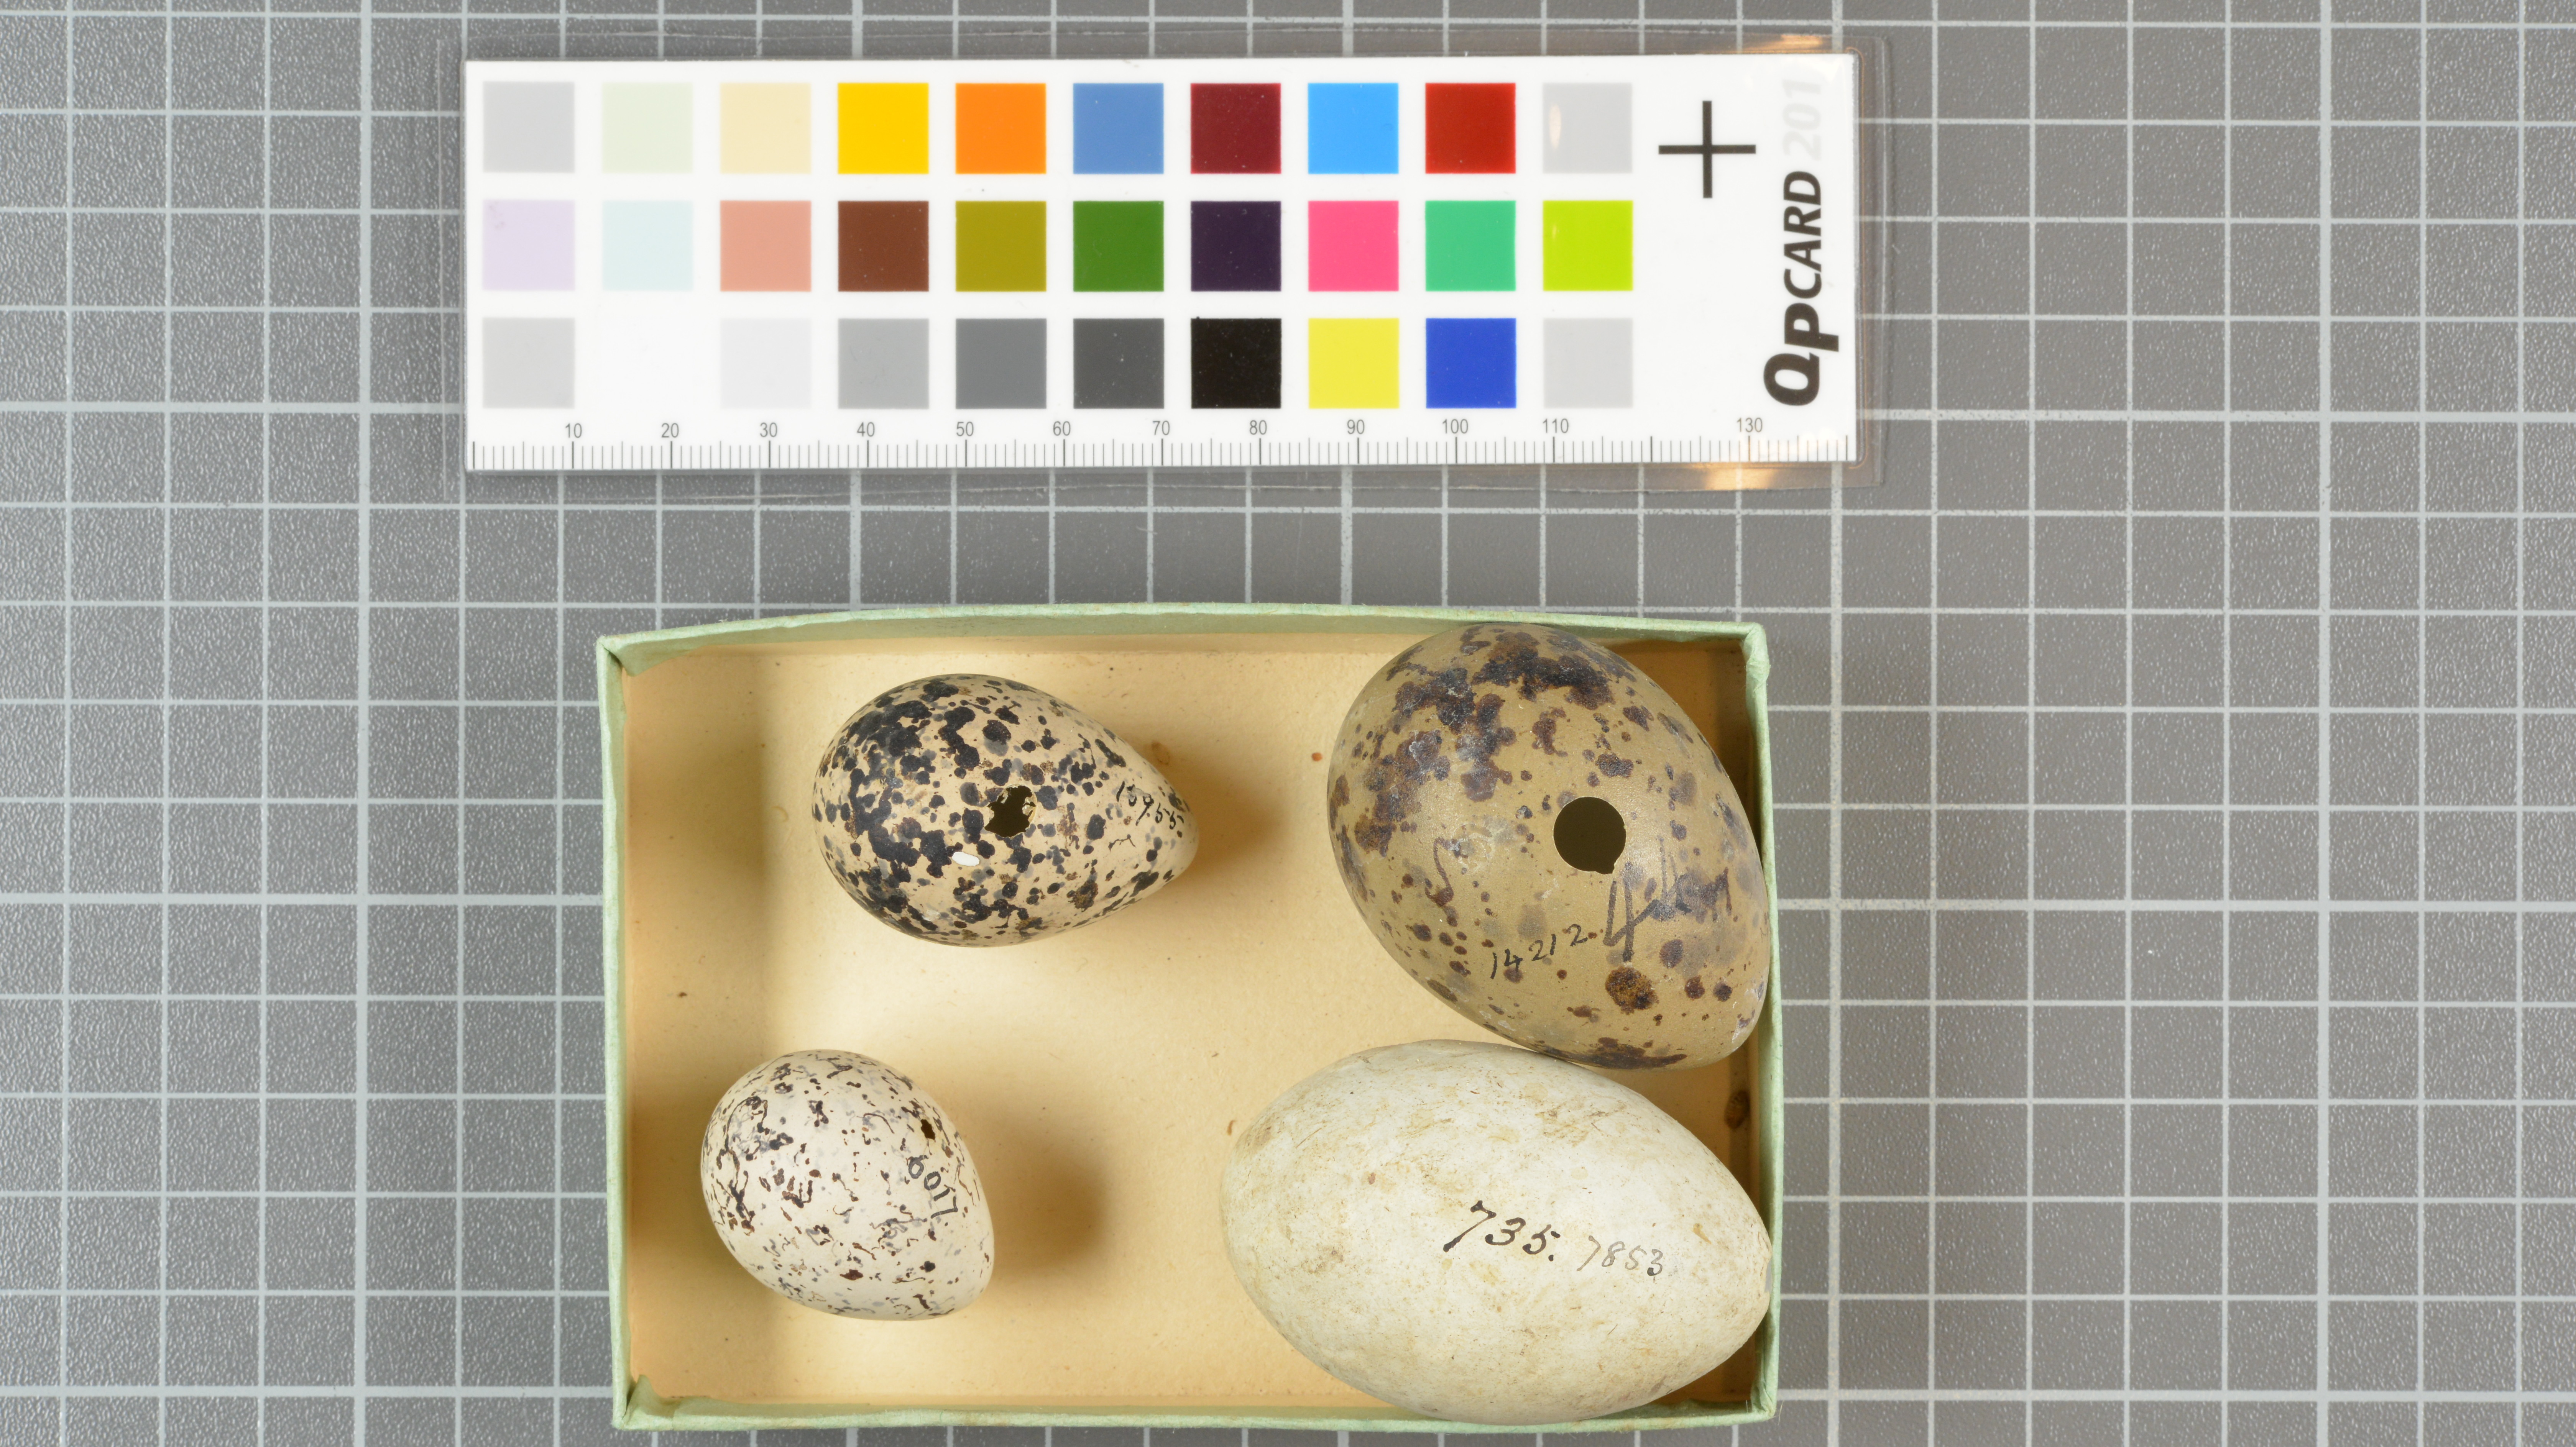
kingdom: Animalia
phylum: Chordata
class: Aves
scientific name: Aves
